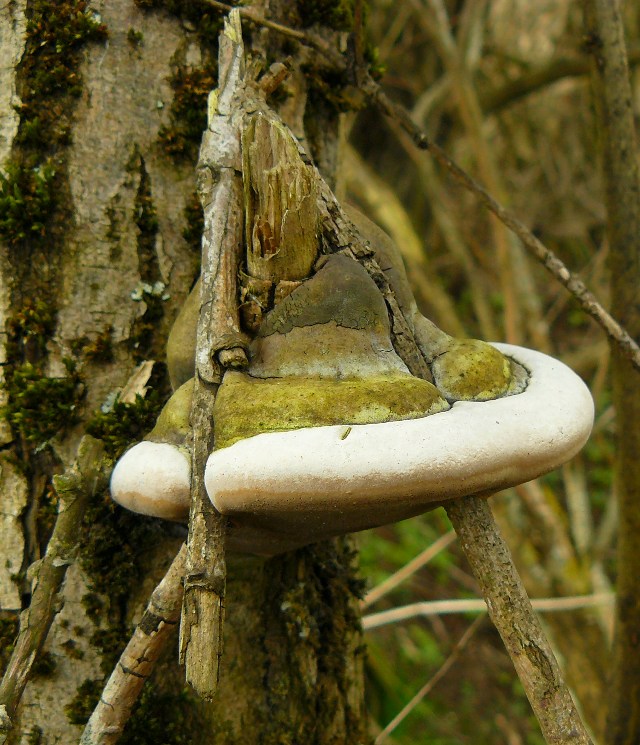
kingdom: Fungi
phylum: Basidiomycota
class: Agaricomycetes
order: Hymenochaetales
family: Hymenochaetaceae
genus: Phellinus
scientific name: Phellinus igniarius
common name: almindelig ildporesvamp
